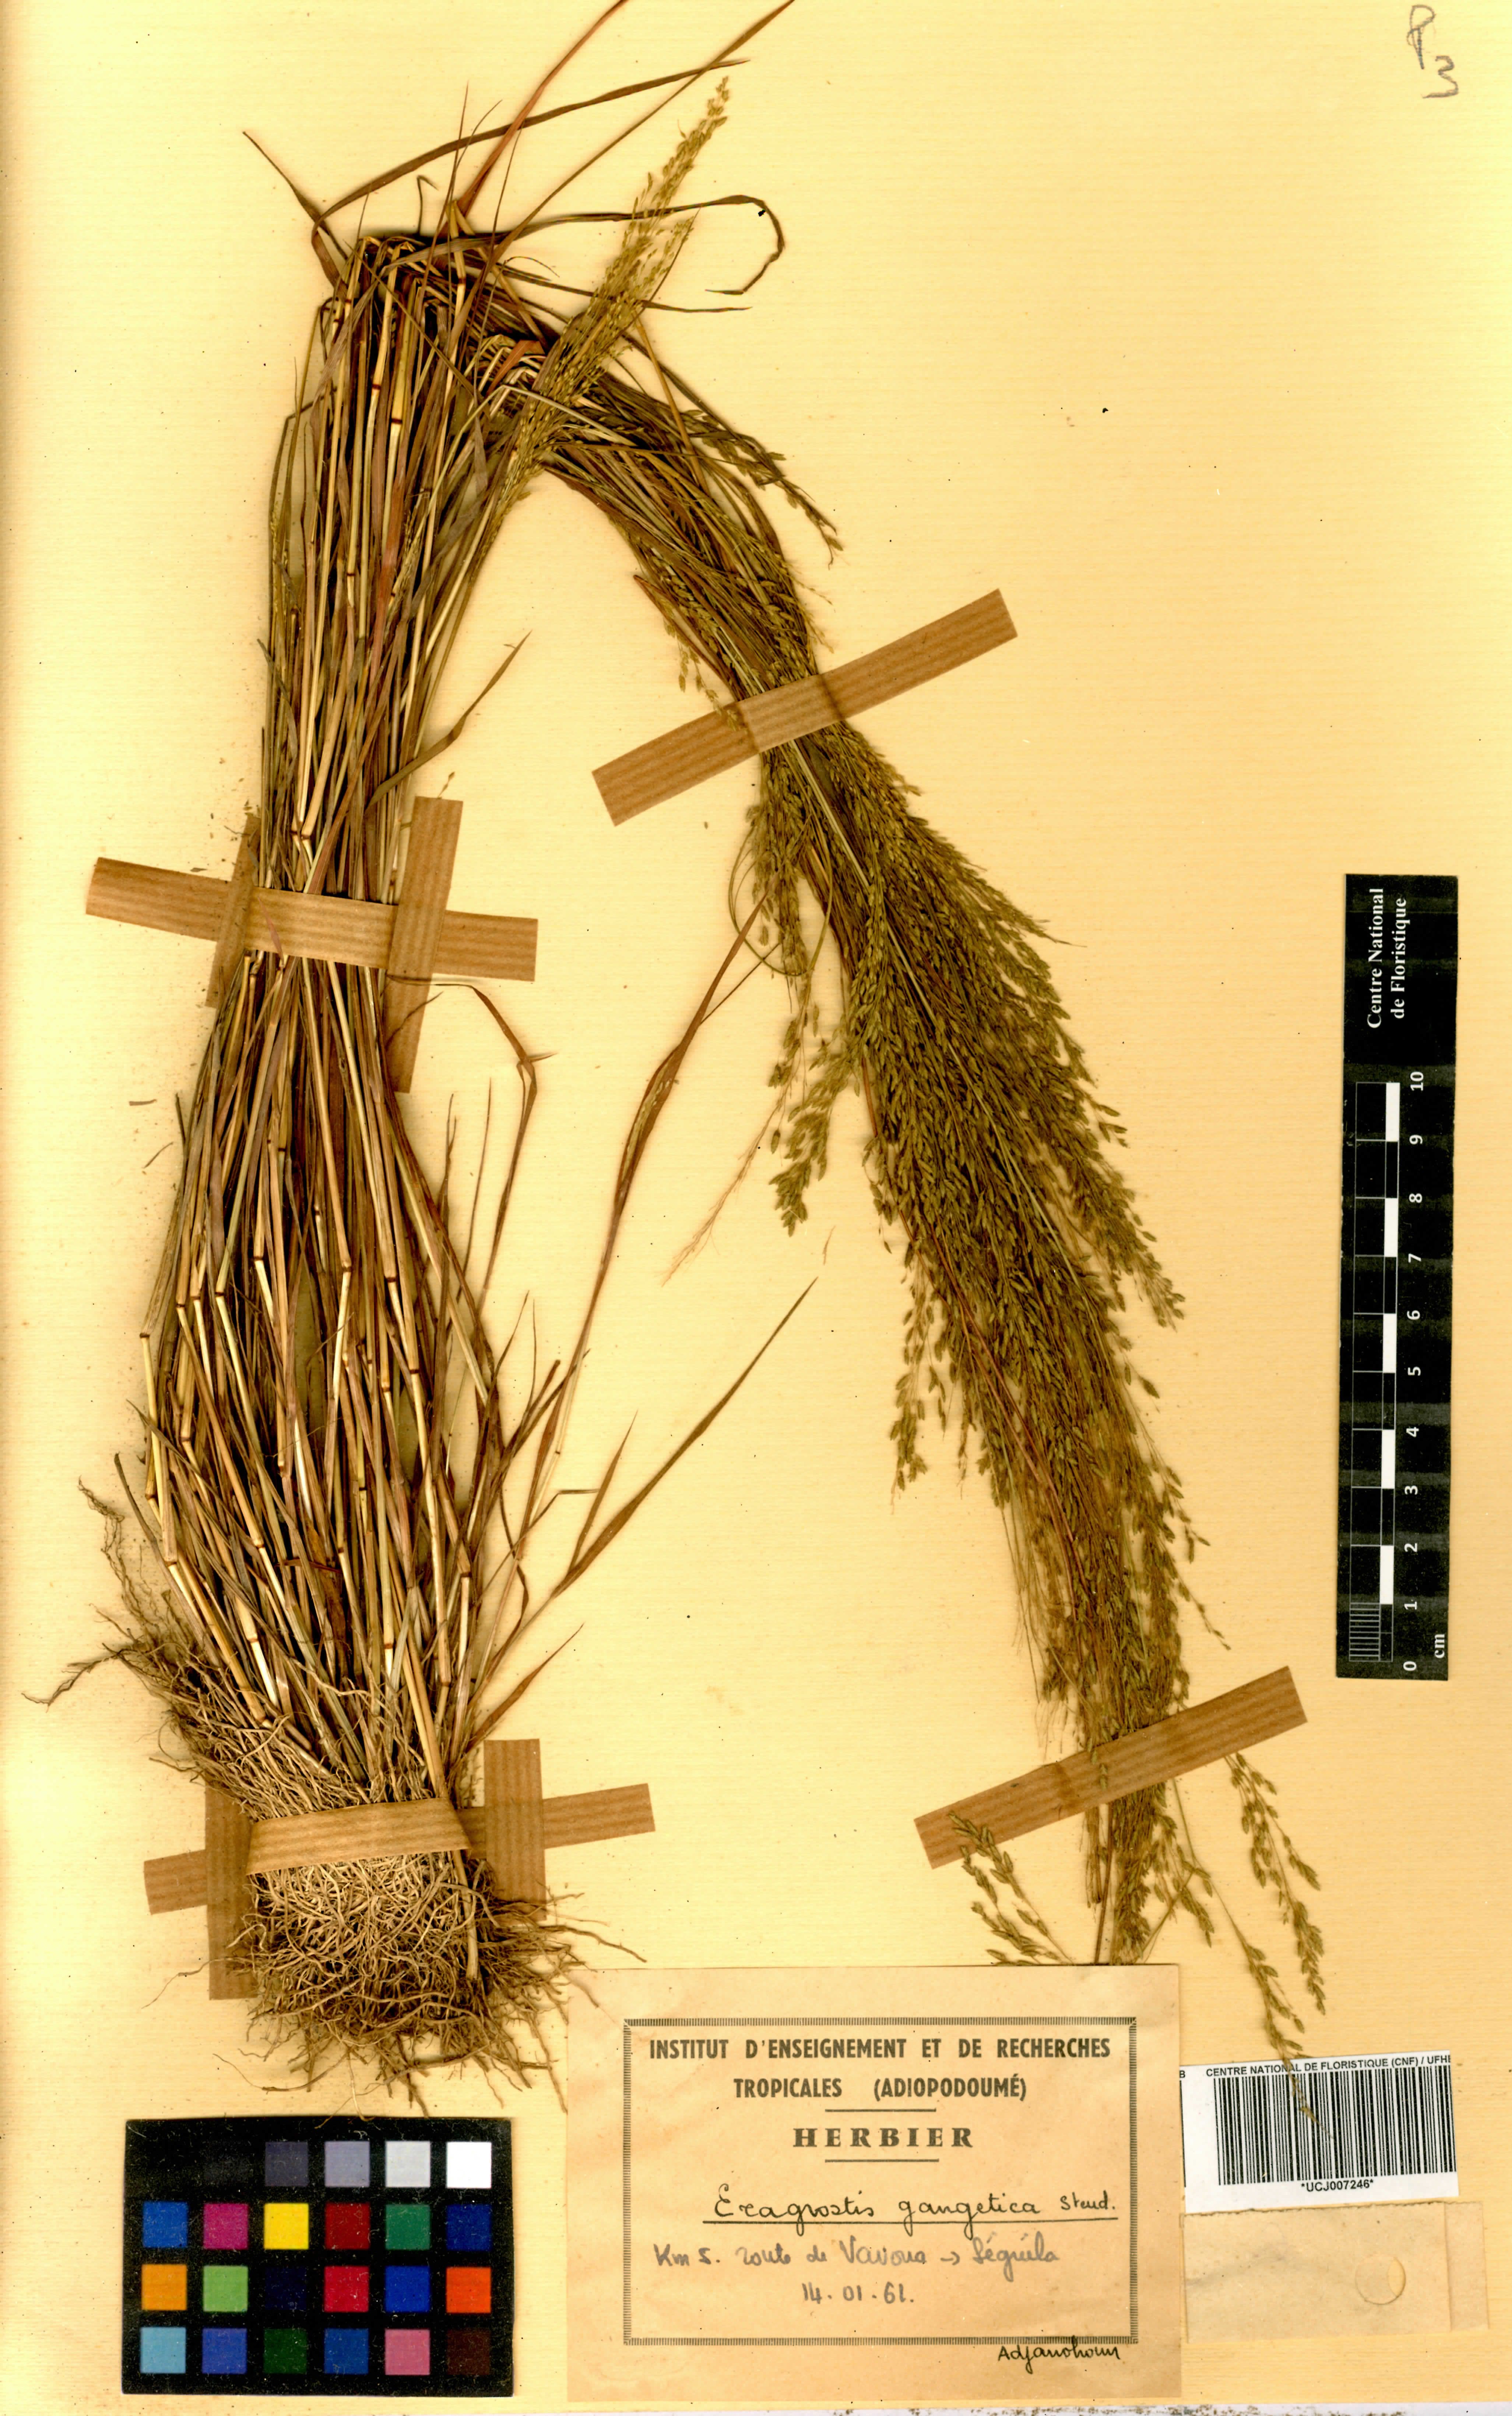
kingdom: Plantae
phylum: Tracheophyta
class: Liliopsida
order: Poales
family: Poaceae
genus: Eragrostis
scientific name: Eragrostis gangetica
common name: Slimflower lovegrass
